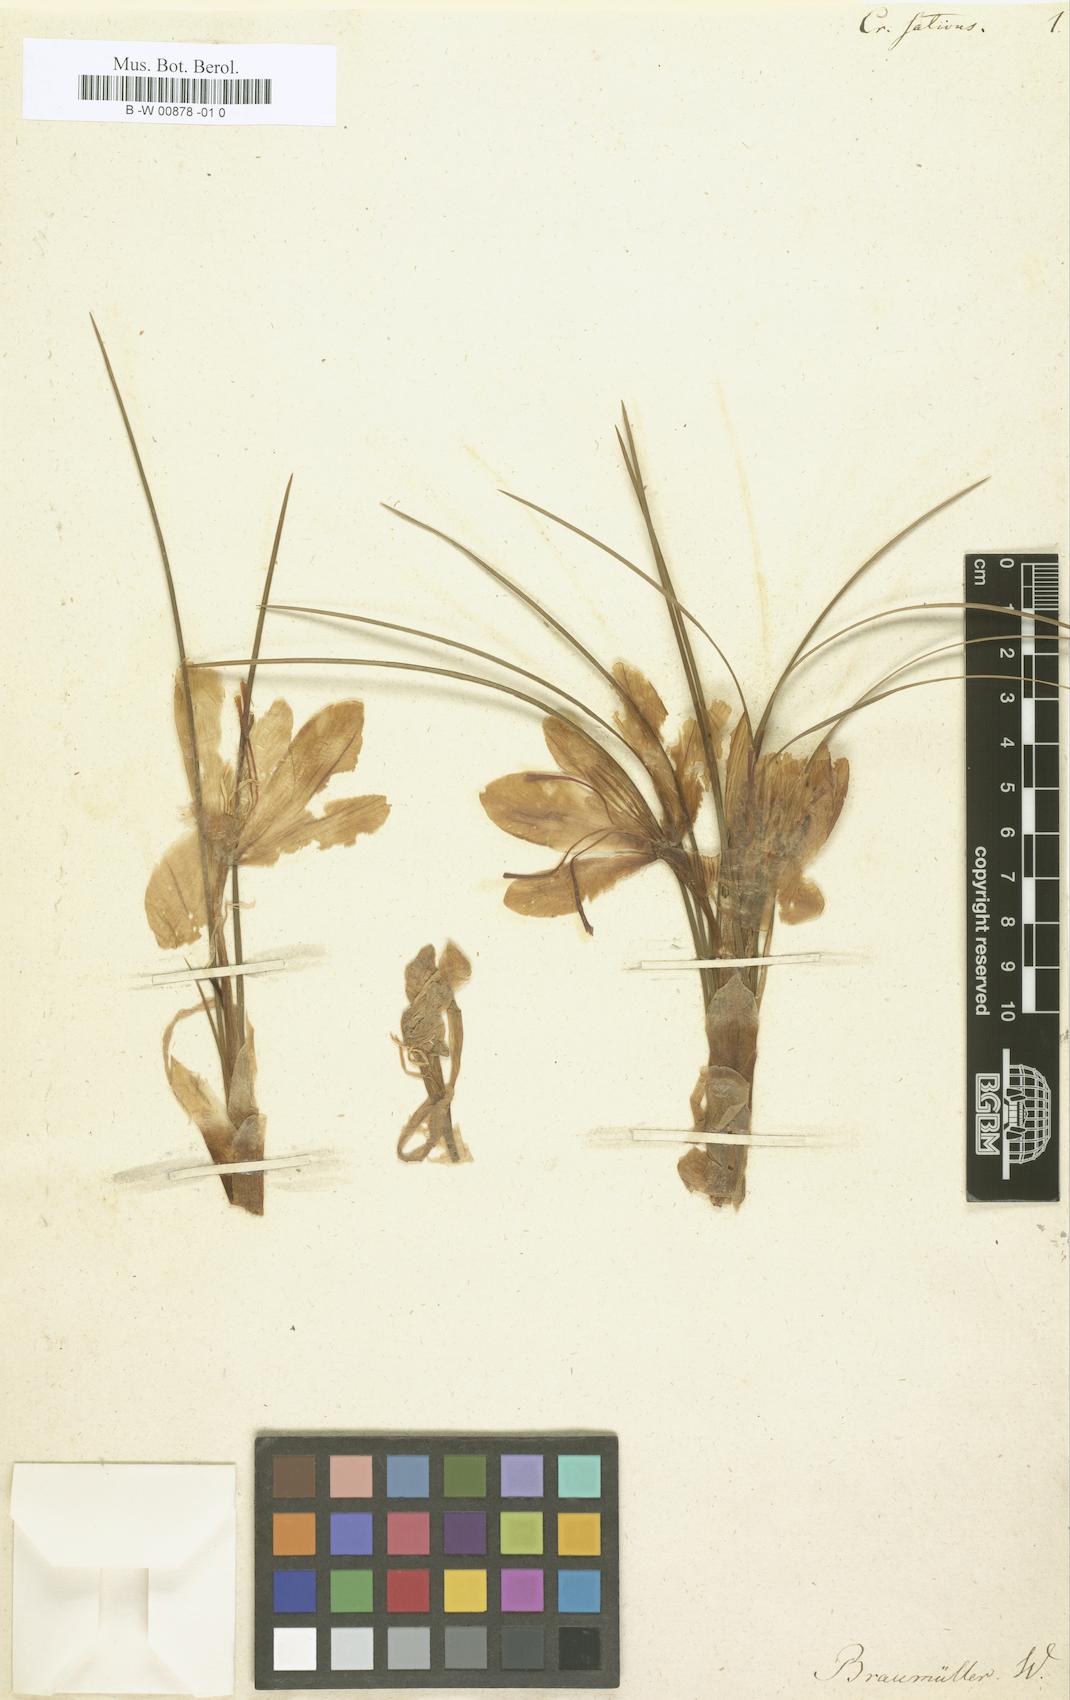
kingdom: Plantae
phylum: Tracheophyta
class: Liliopsida
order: Asparagales
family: Iridaceae
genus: Crocus
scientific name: Crocus sativus
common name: Saffron crocus
